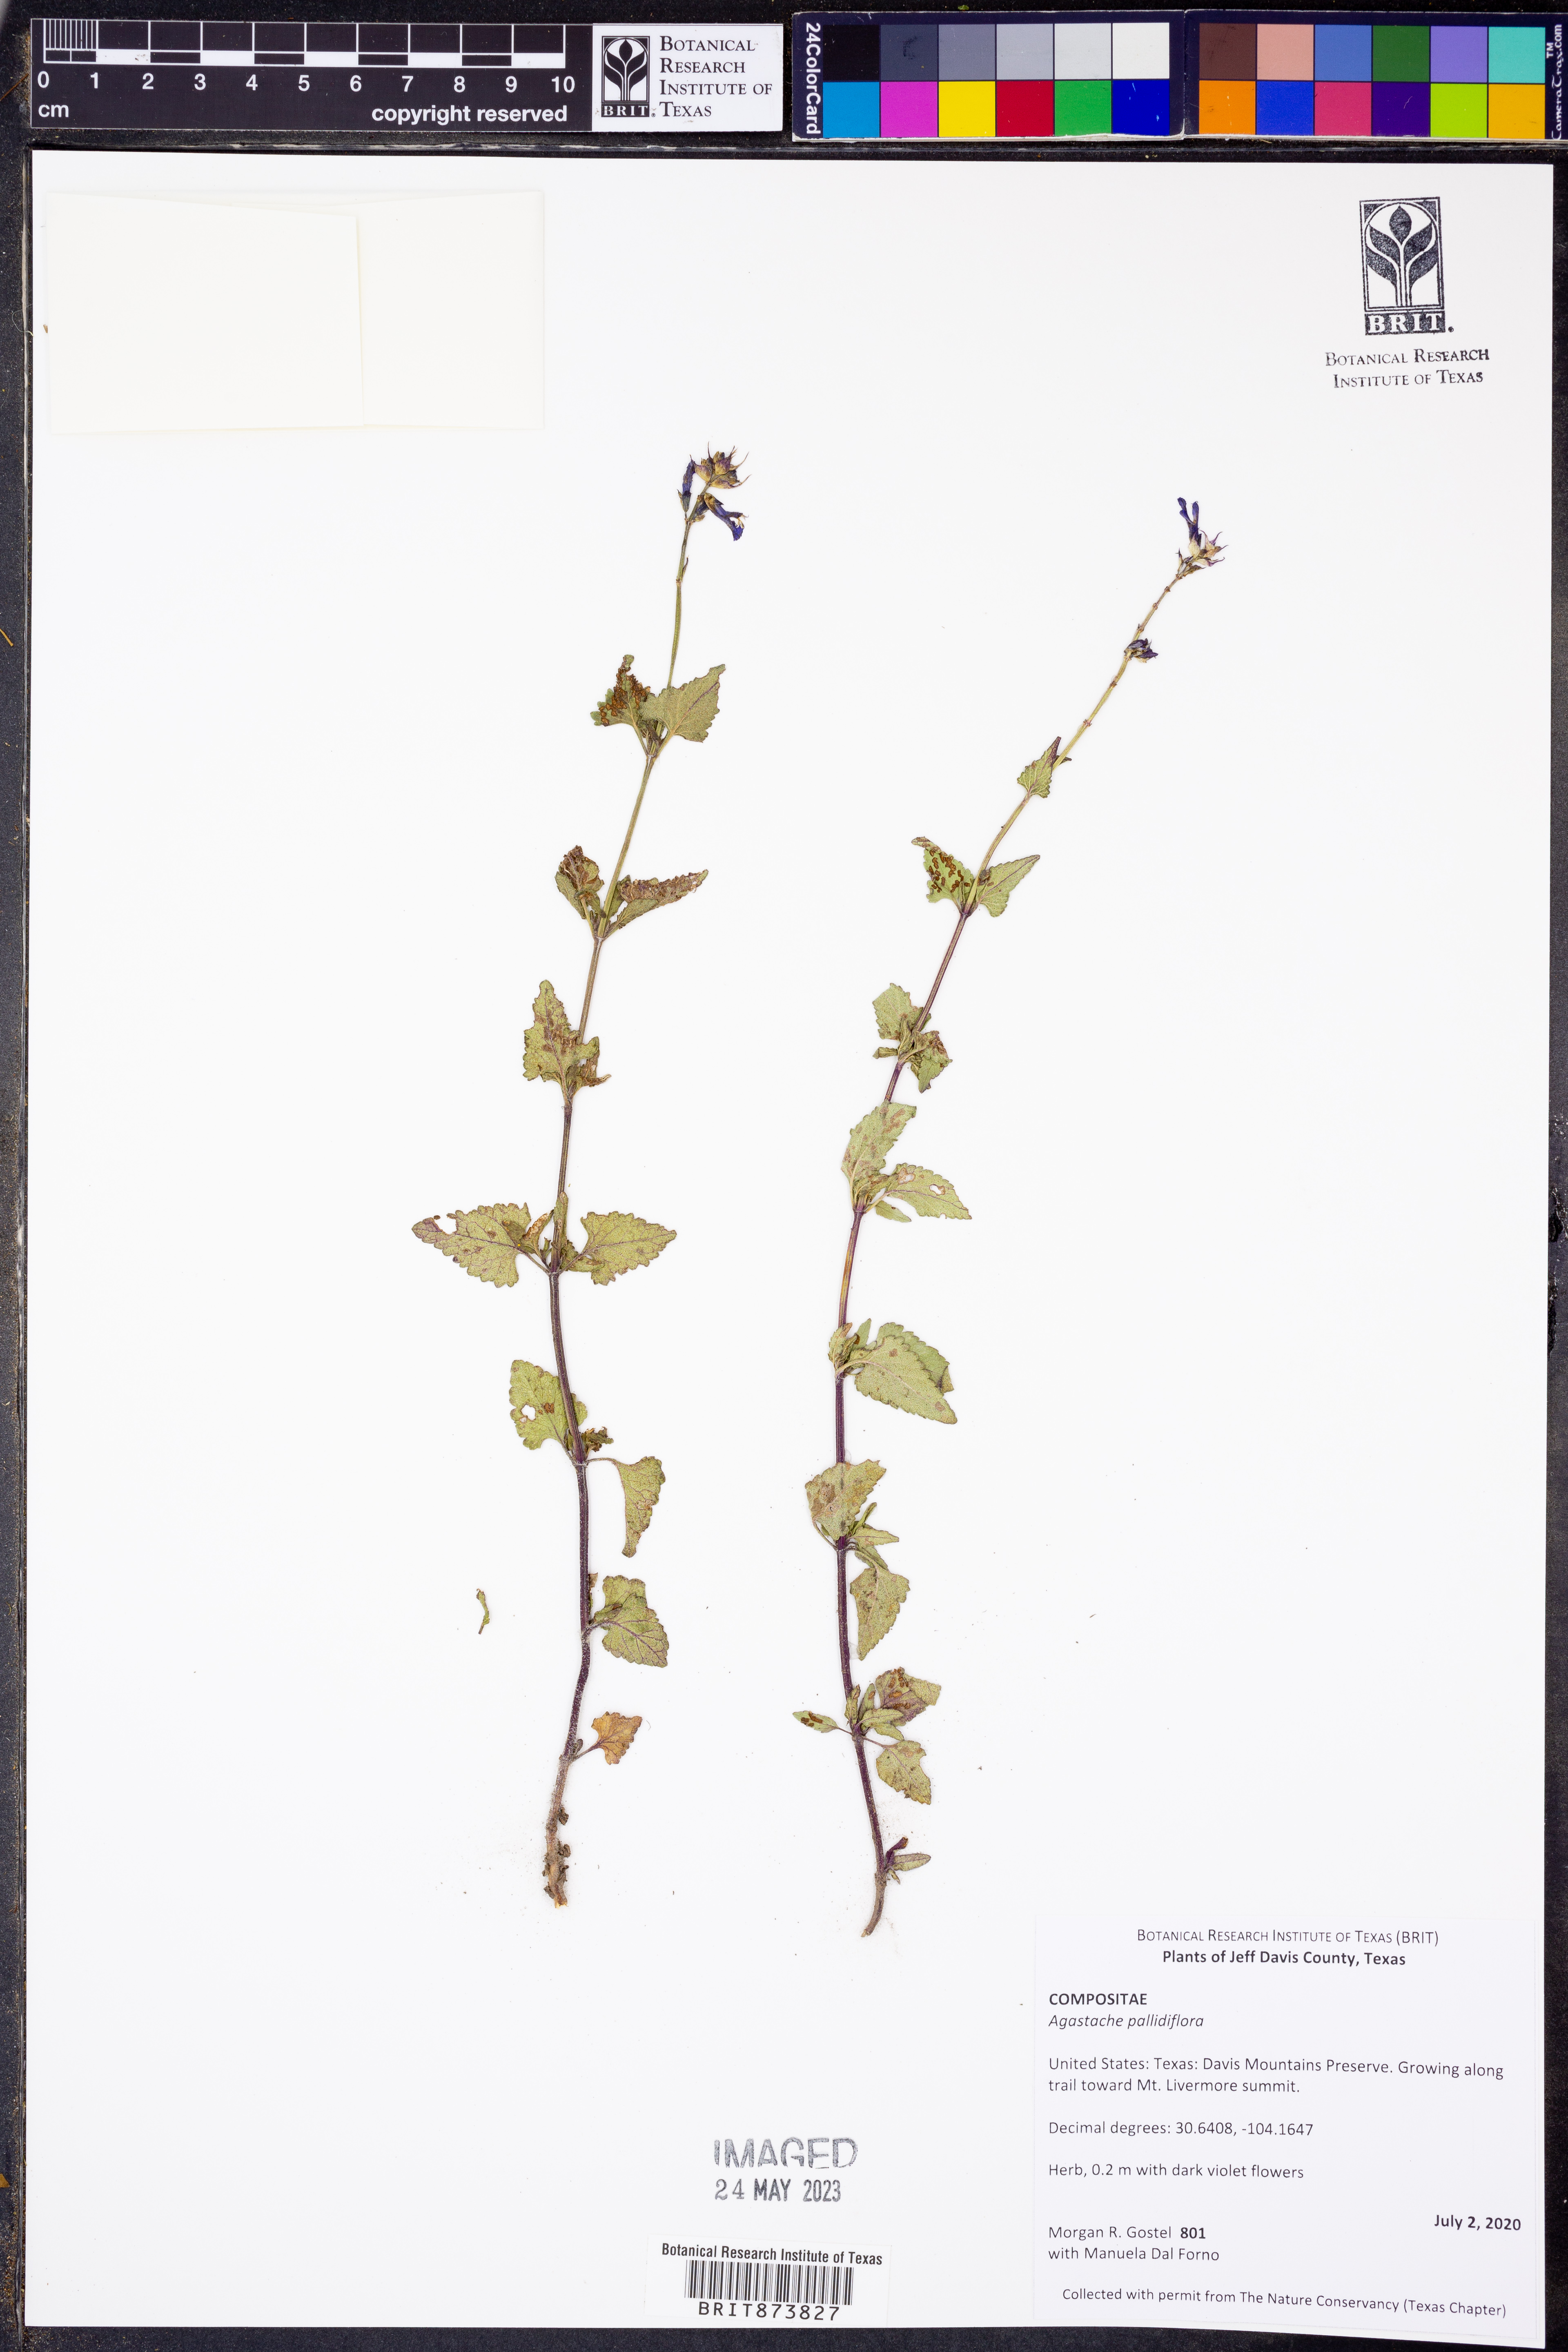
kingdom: Plantae
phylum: Tracheophyta
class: Magnoliopsida
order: Lamiales
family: Lamiaceae
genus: Agastache
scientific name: Agastache pallidiflora
